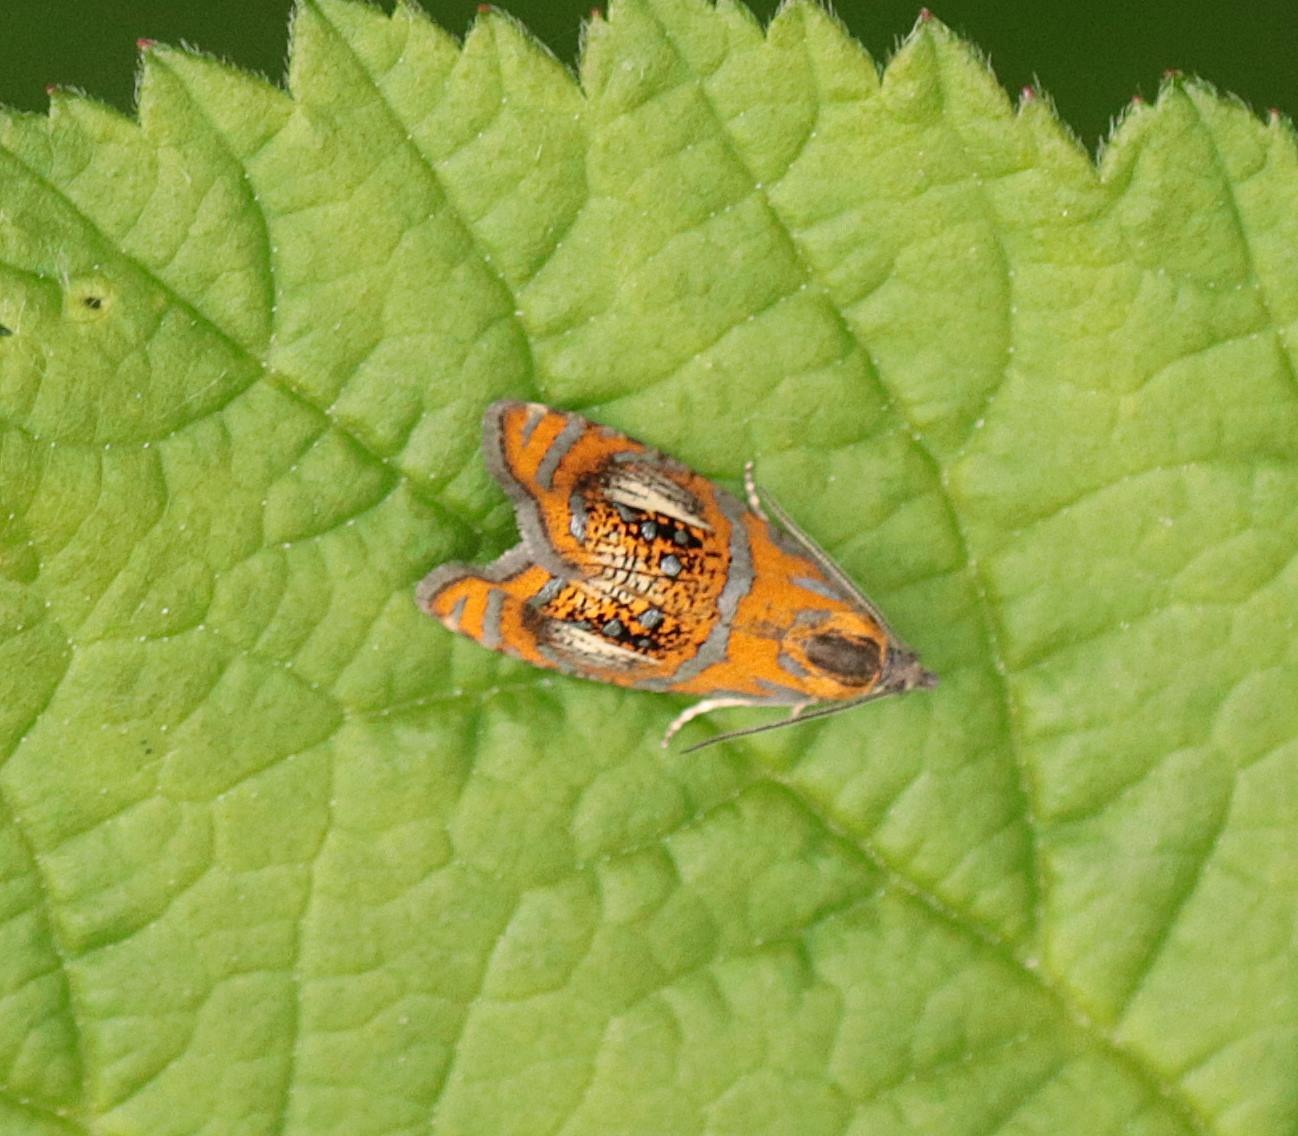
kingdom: Animalia
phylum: Arthropoda
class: Insecta
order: Lepidoptera
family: Tortricidae
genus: Olethreutes
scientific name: Olethreutes arcuella
